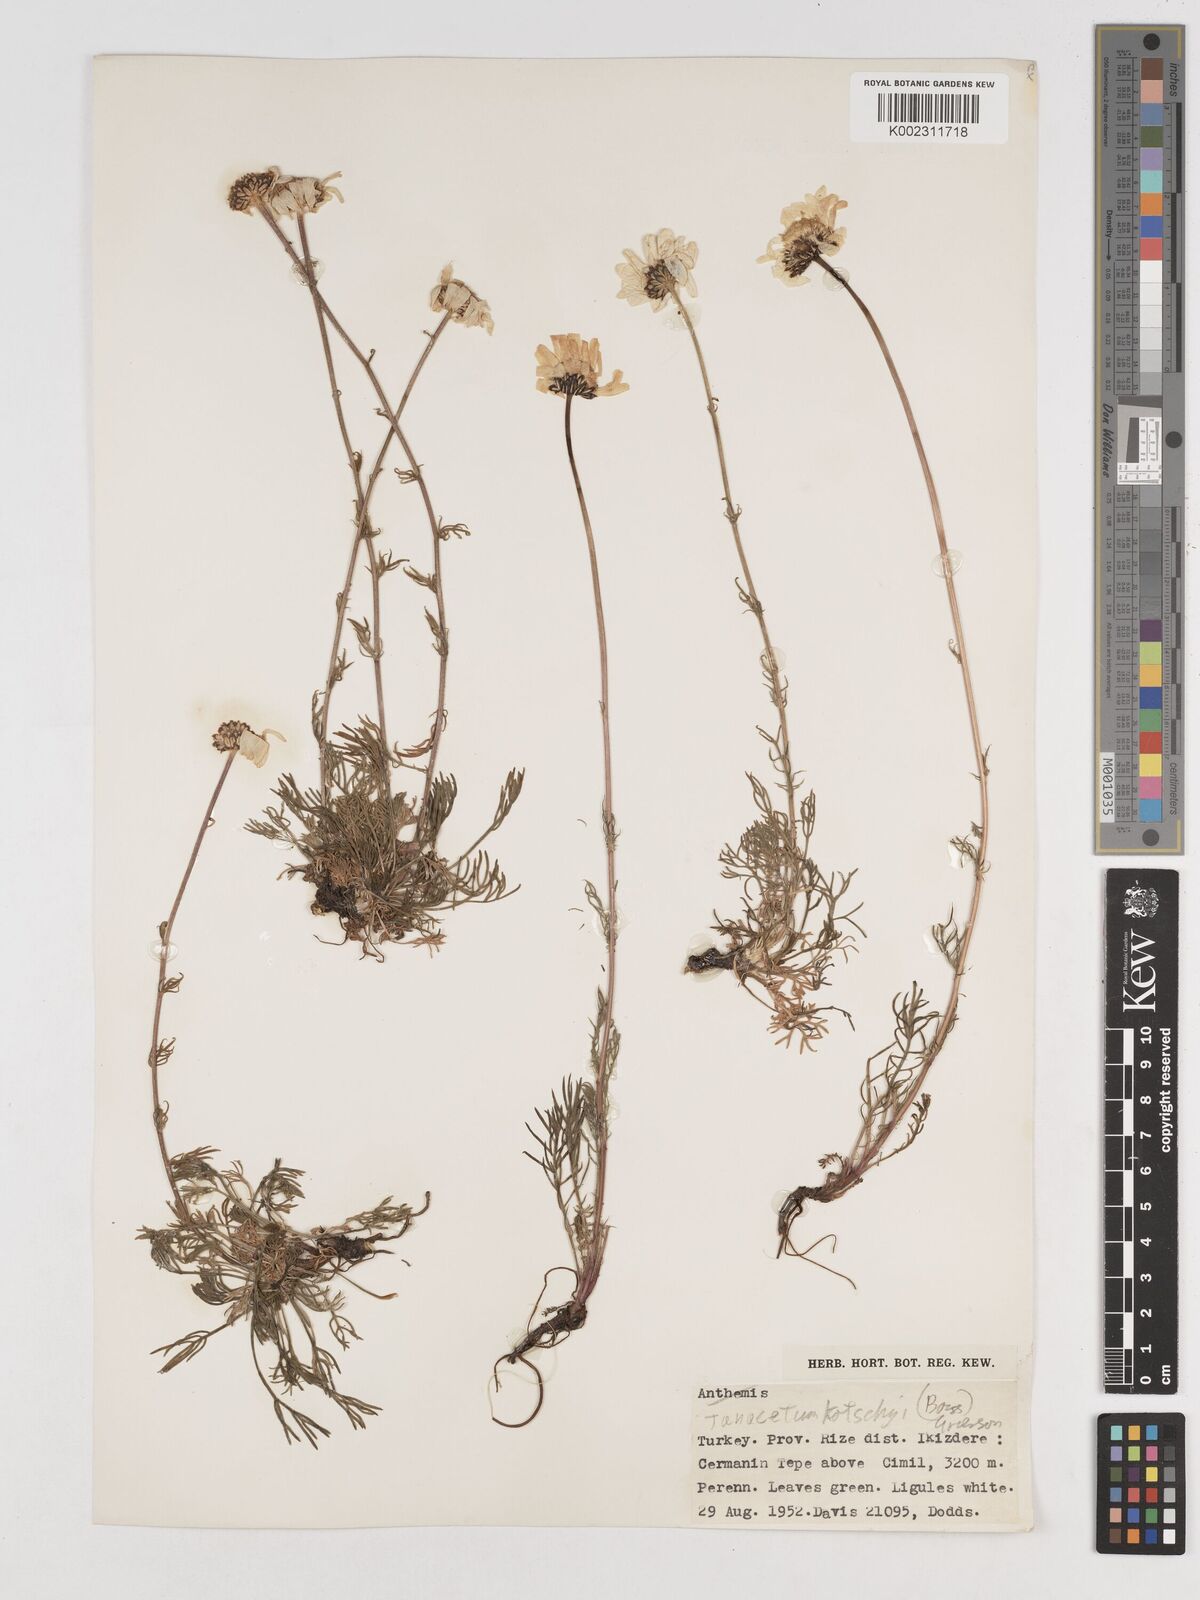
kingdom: Plantae
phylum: Tracheophyta
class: Magnoliopsida
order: Asterales
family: Asteraceae
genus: Tanacetum
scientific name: Tanacetum kotschyi
